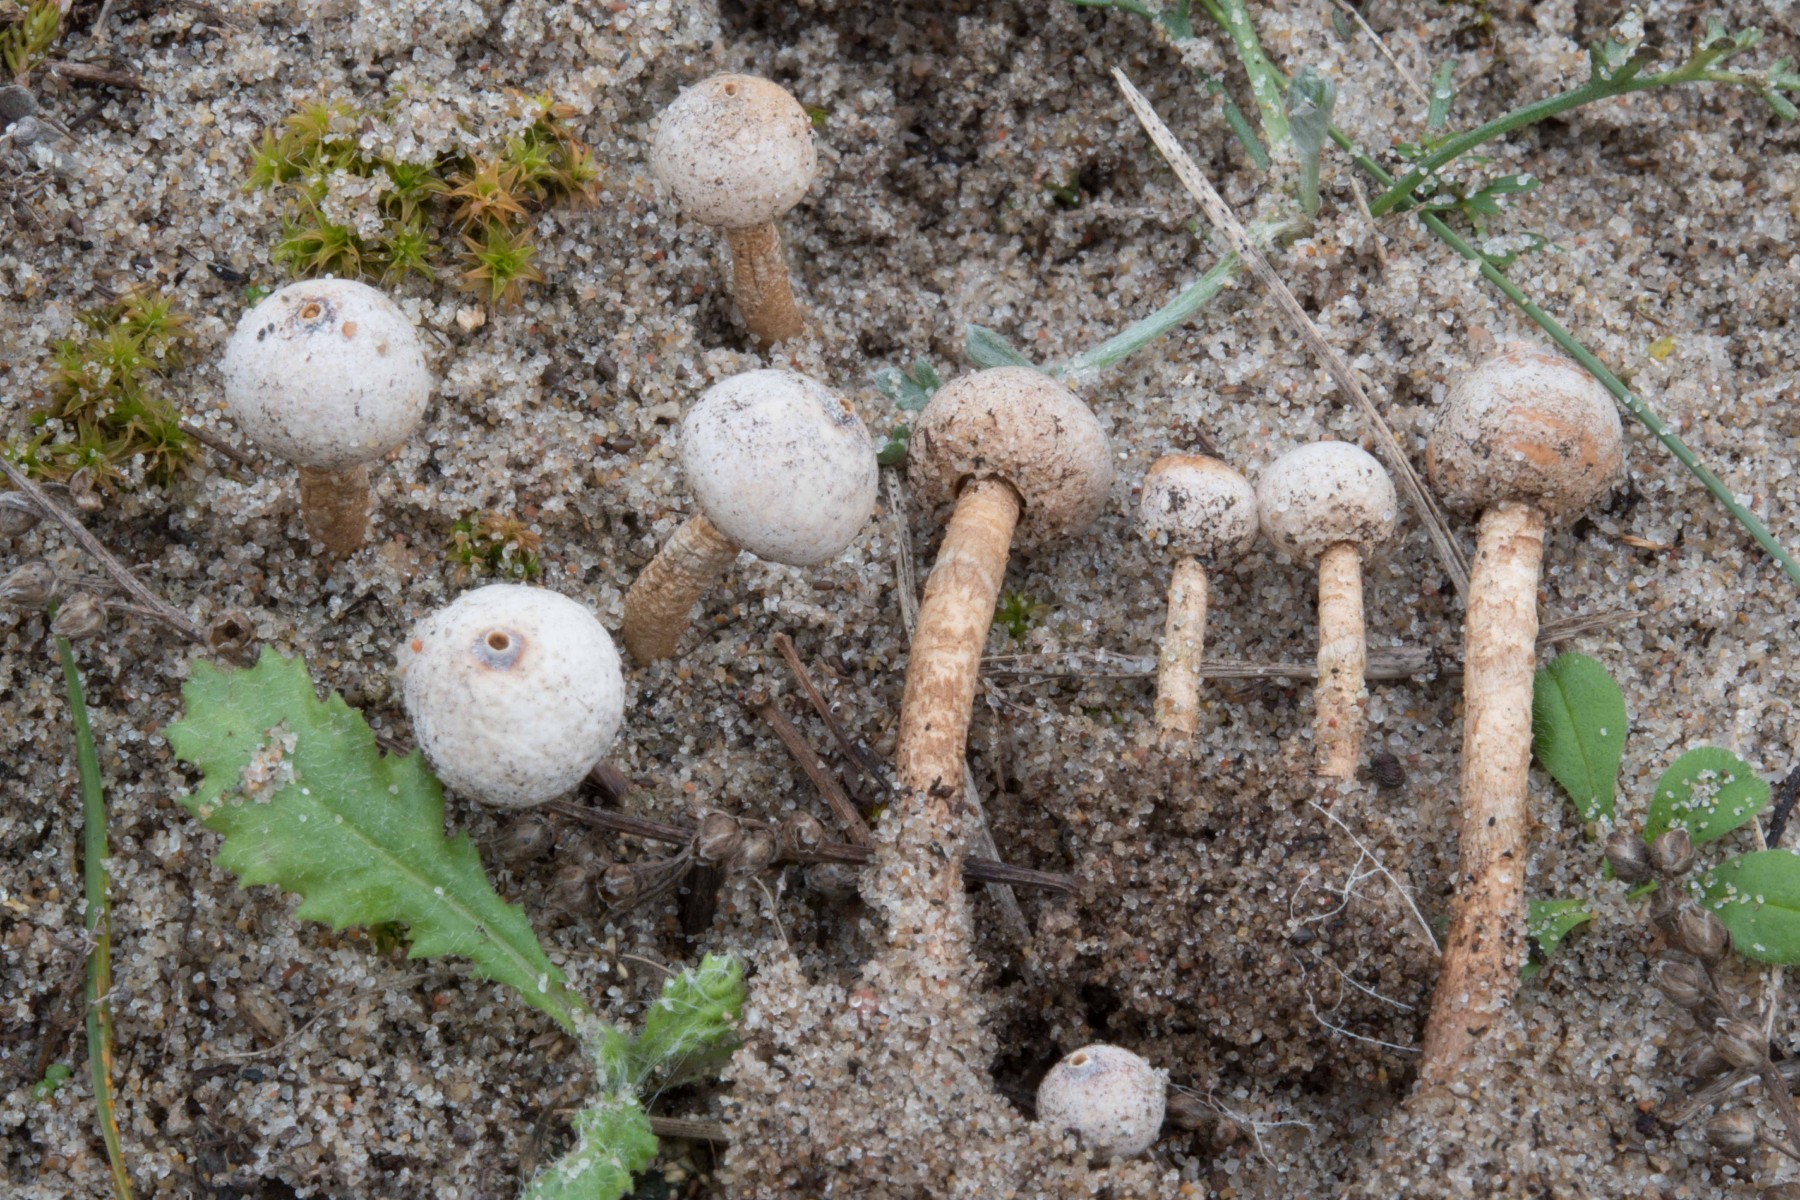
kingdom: Fungi
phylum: Basidiomycota
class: Agaricomycetes
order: Agaricales
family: Agaricaceae
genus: Tulostoma
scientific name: Tulostoma brumale
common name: vinter-stilkbovist
